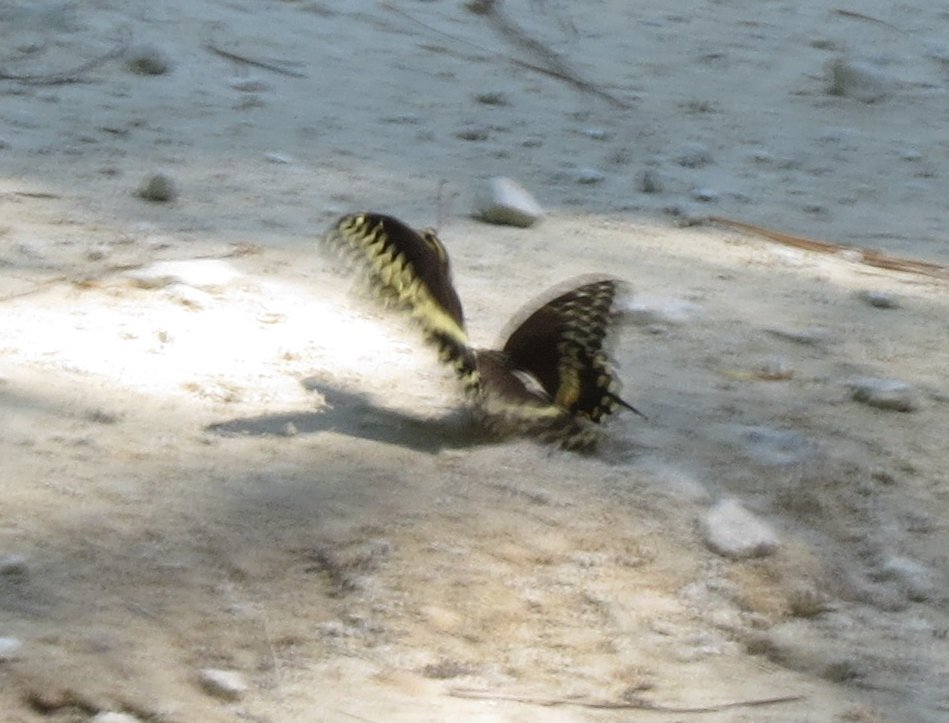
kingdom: Animalia
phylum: Arthropoda
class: Insecta
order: Lepidoptera
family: Papilionidae
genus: Pterourus
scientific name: Pterourus palamedes
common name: Palamedes Swallowtail
